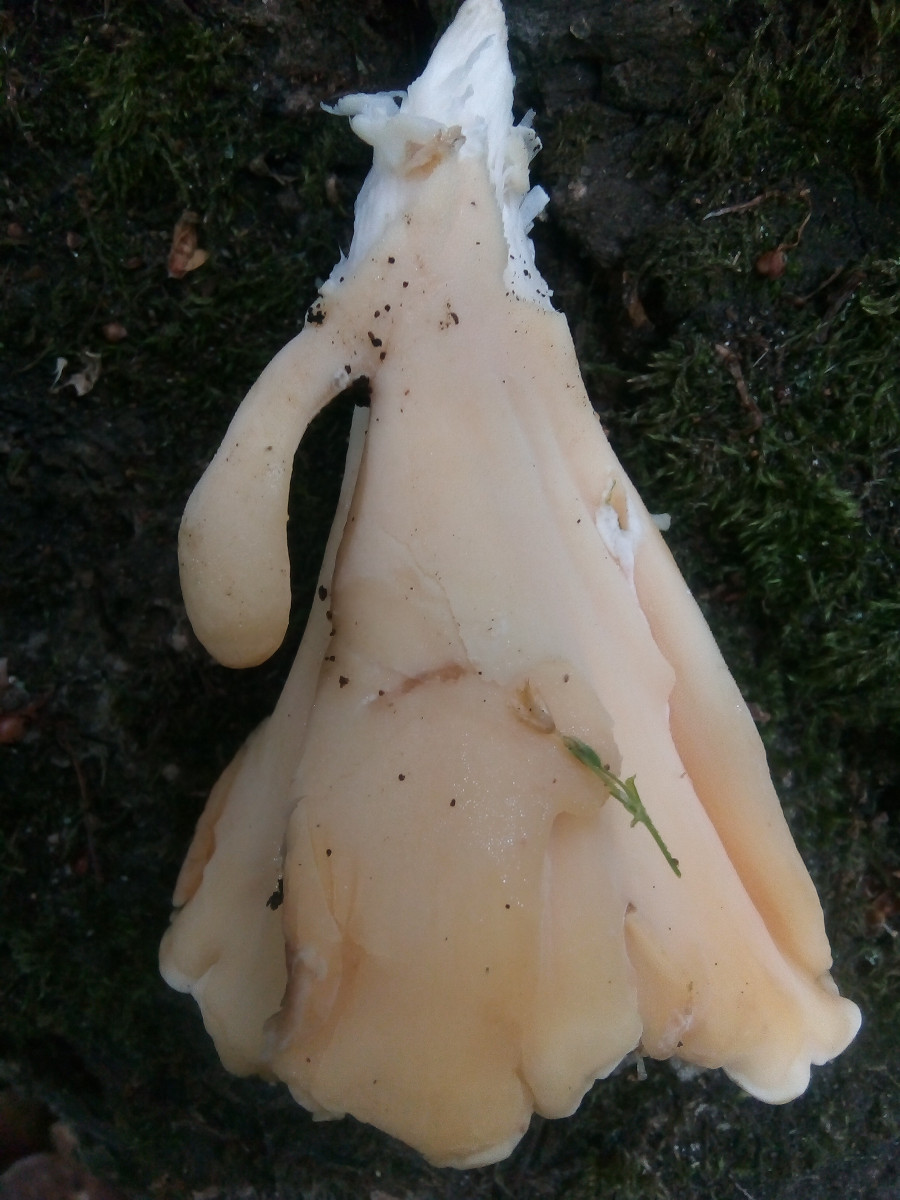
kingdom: Fungi
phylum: Basidiomycota
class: Agaricomycetes
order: Polyporales
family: Meripilaceae
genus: Meripilus
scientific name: Meripilus giganteus
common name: kæmpeporesvamp
